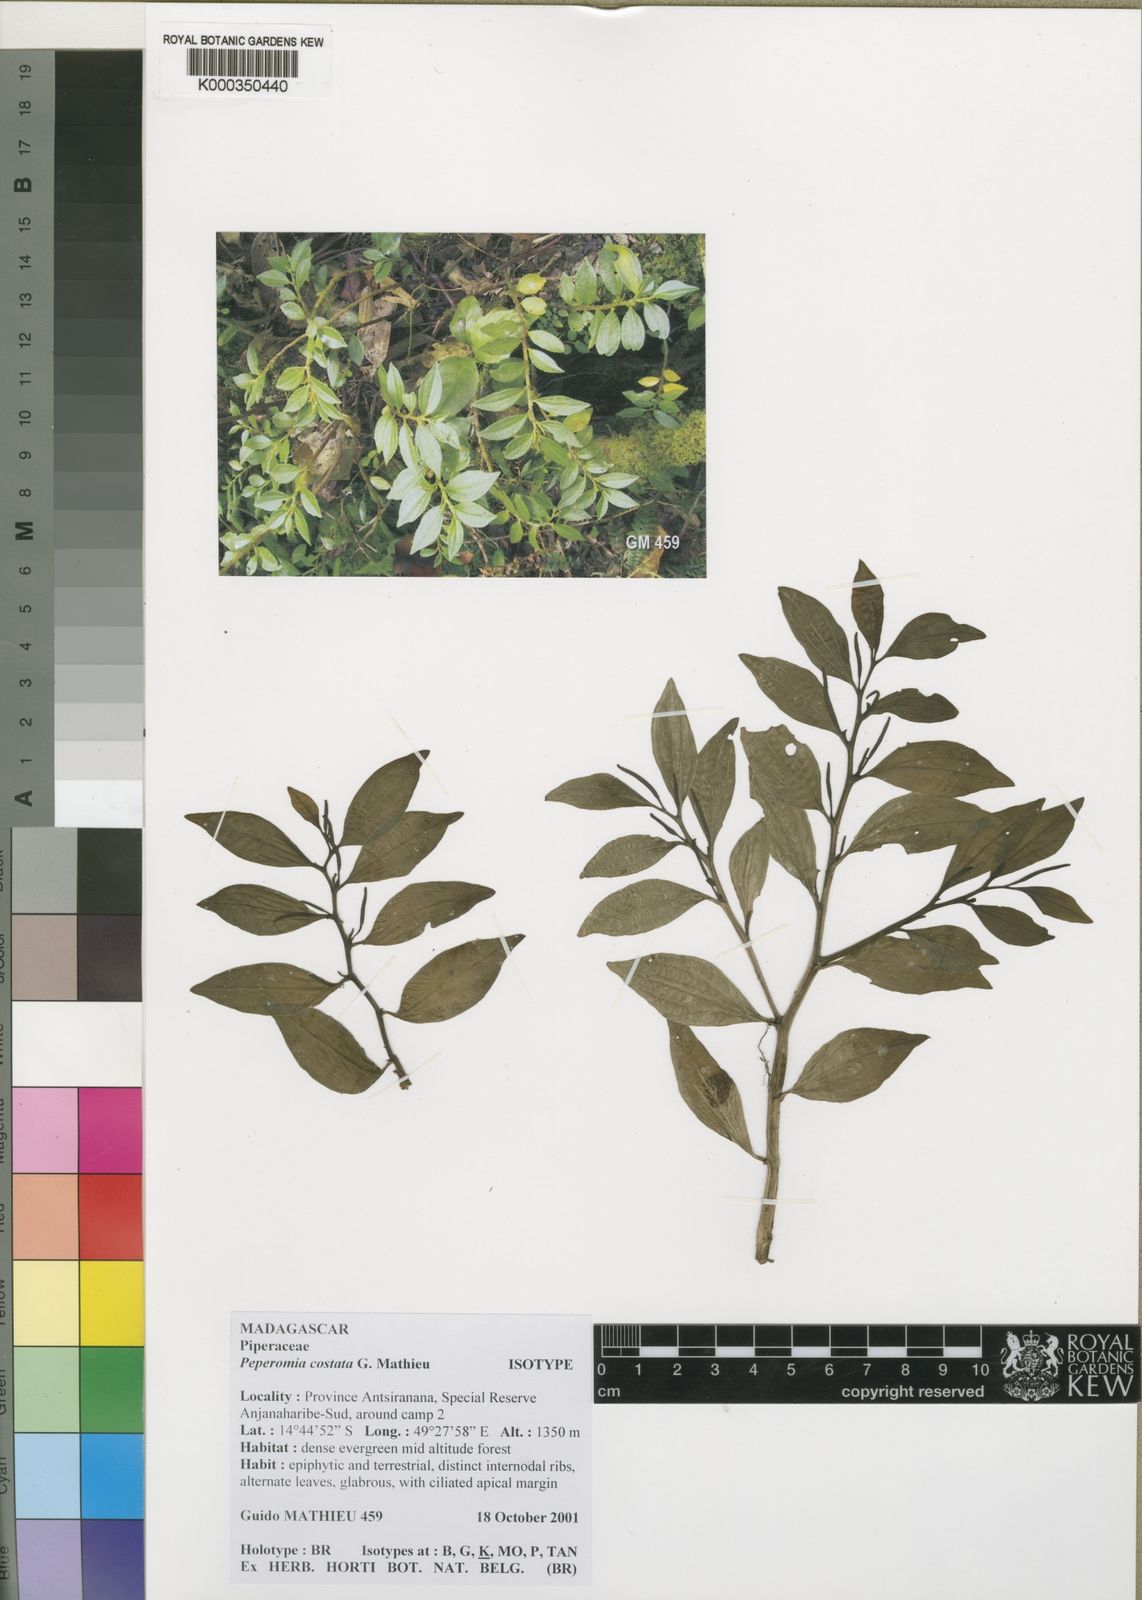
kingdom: Plantae
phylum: Tracheophyta
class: Magnoliopsida
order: Piperales
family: Piperaceae
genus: Peperomia
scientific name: Peperomia costata
